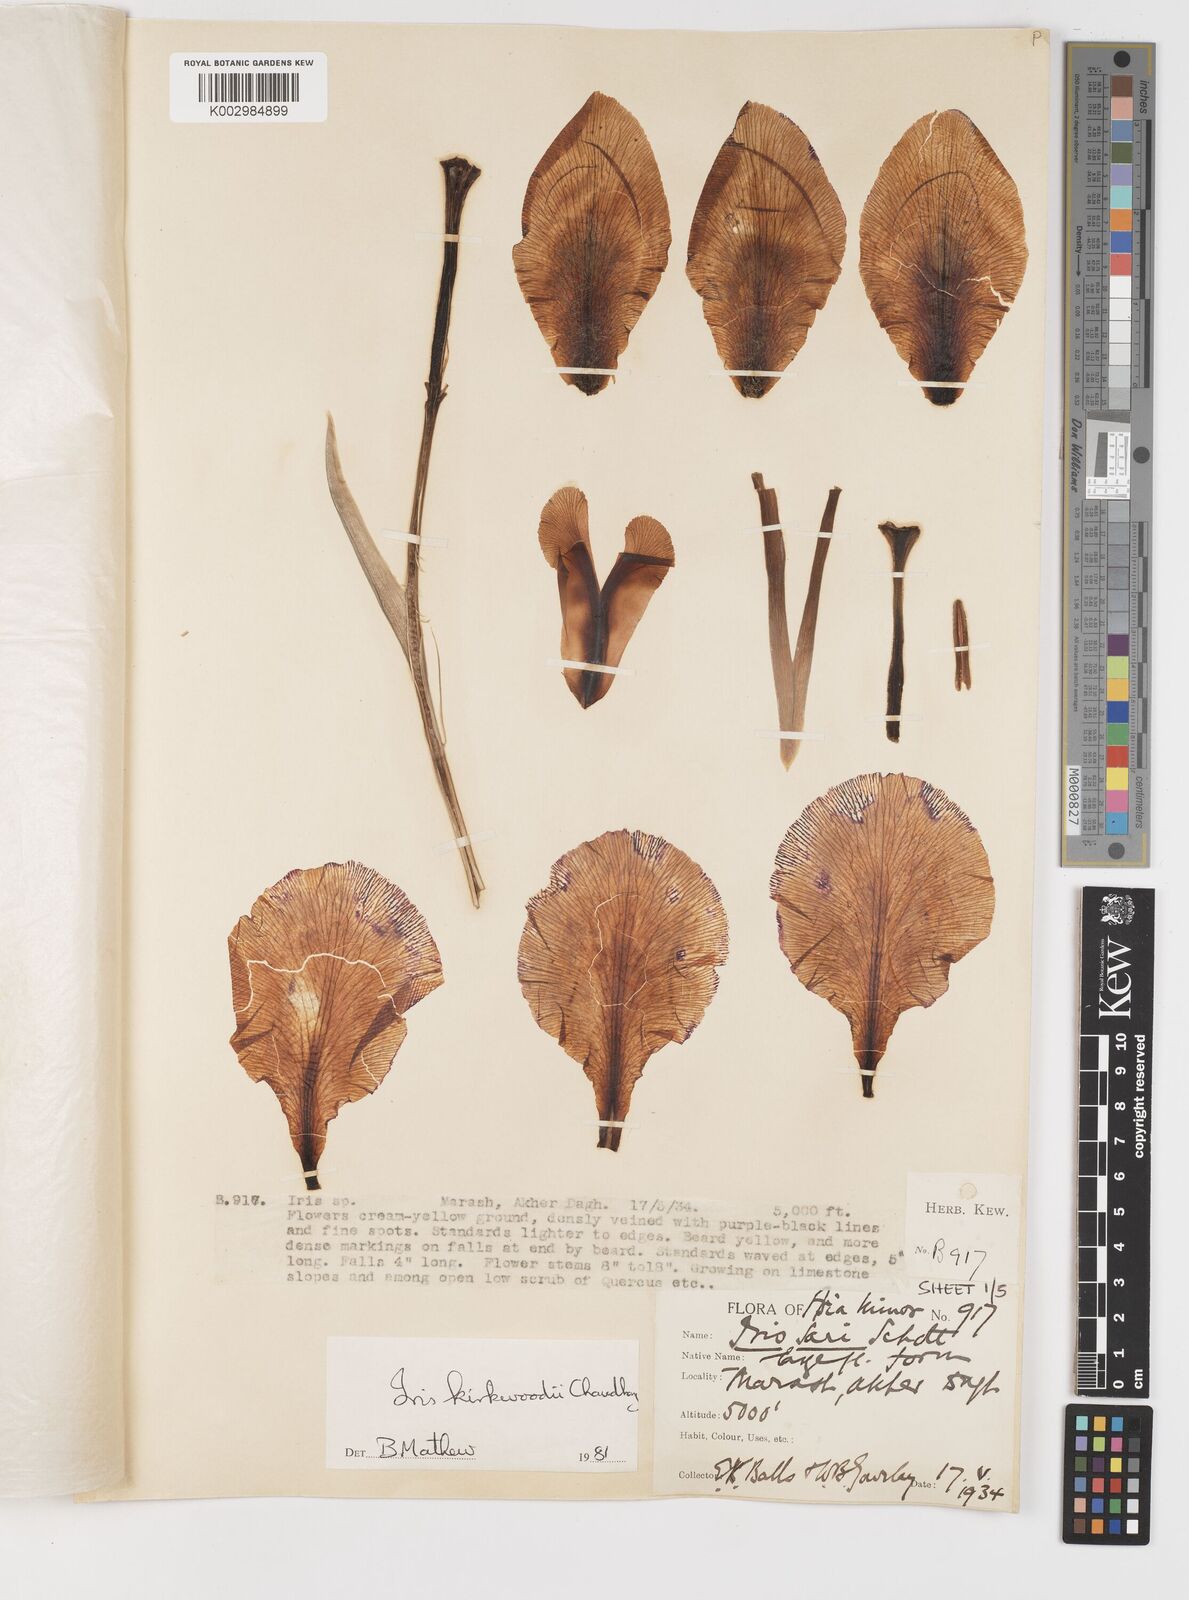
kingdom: Plantae
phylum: Tracheophyta
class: Liliopsida
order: Asparagales
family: Iridaceae
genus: Iris
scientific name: Iris kirkwoodiae
